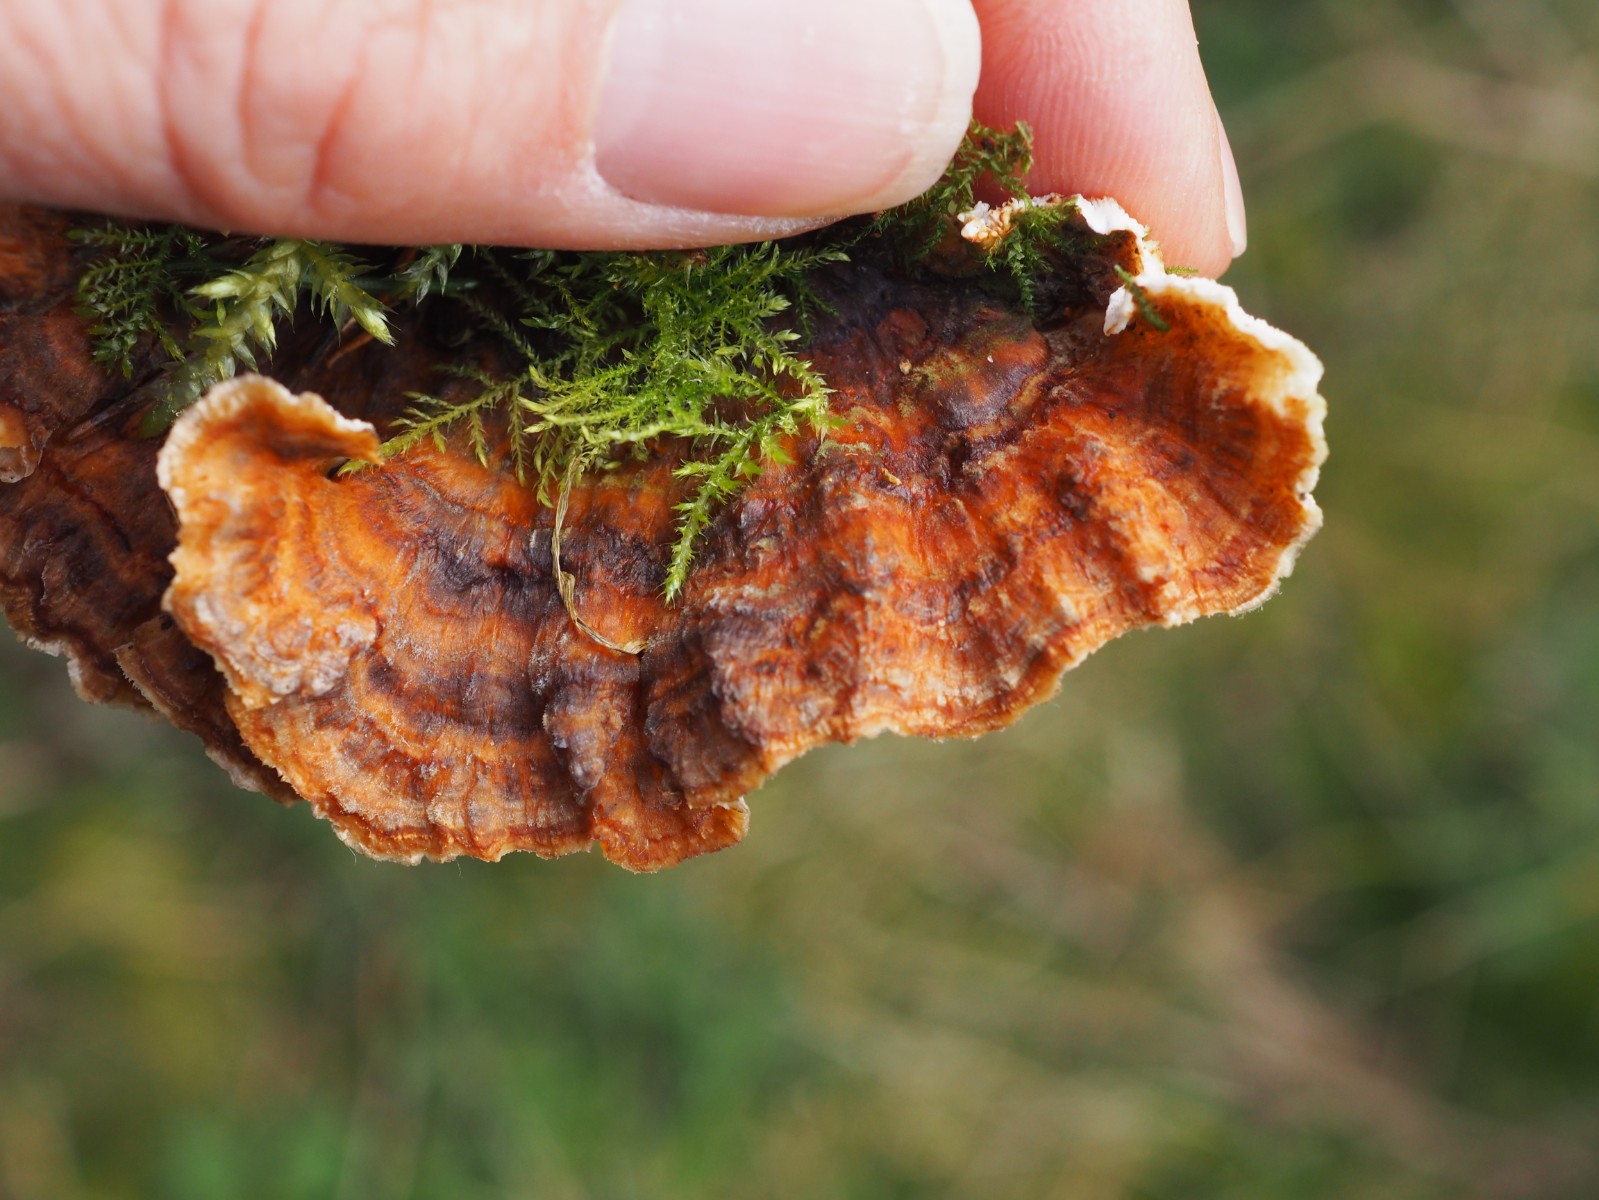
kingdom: Fungi
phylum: Basidiomycota
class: Agaricomycetes
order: Polyporales
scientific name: Polyporales
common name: poresvampordenen
